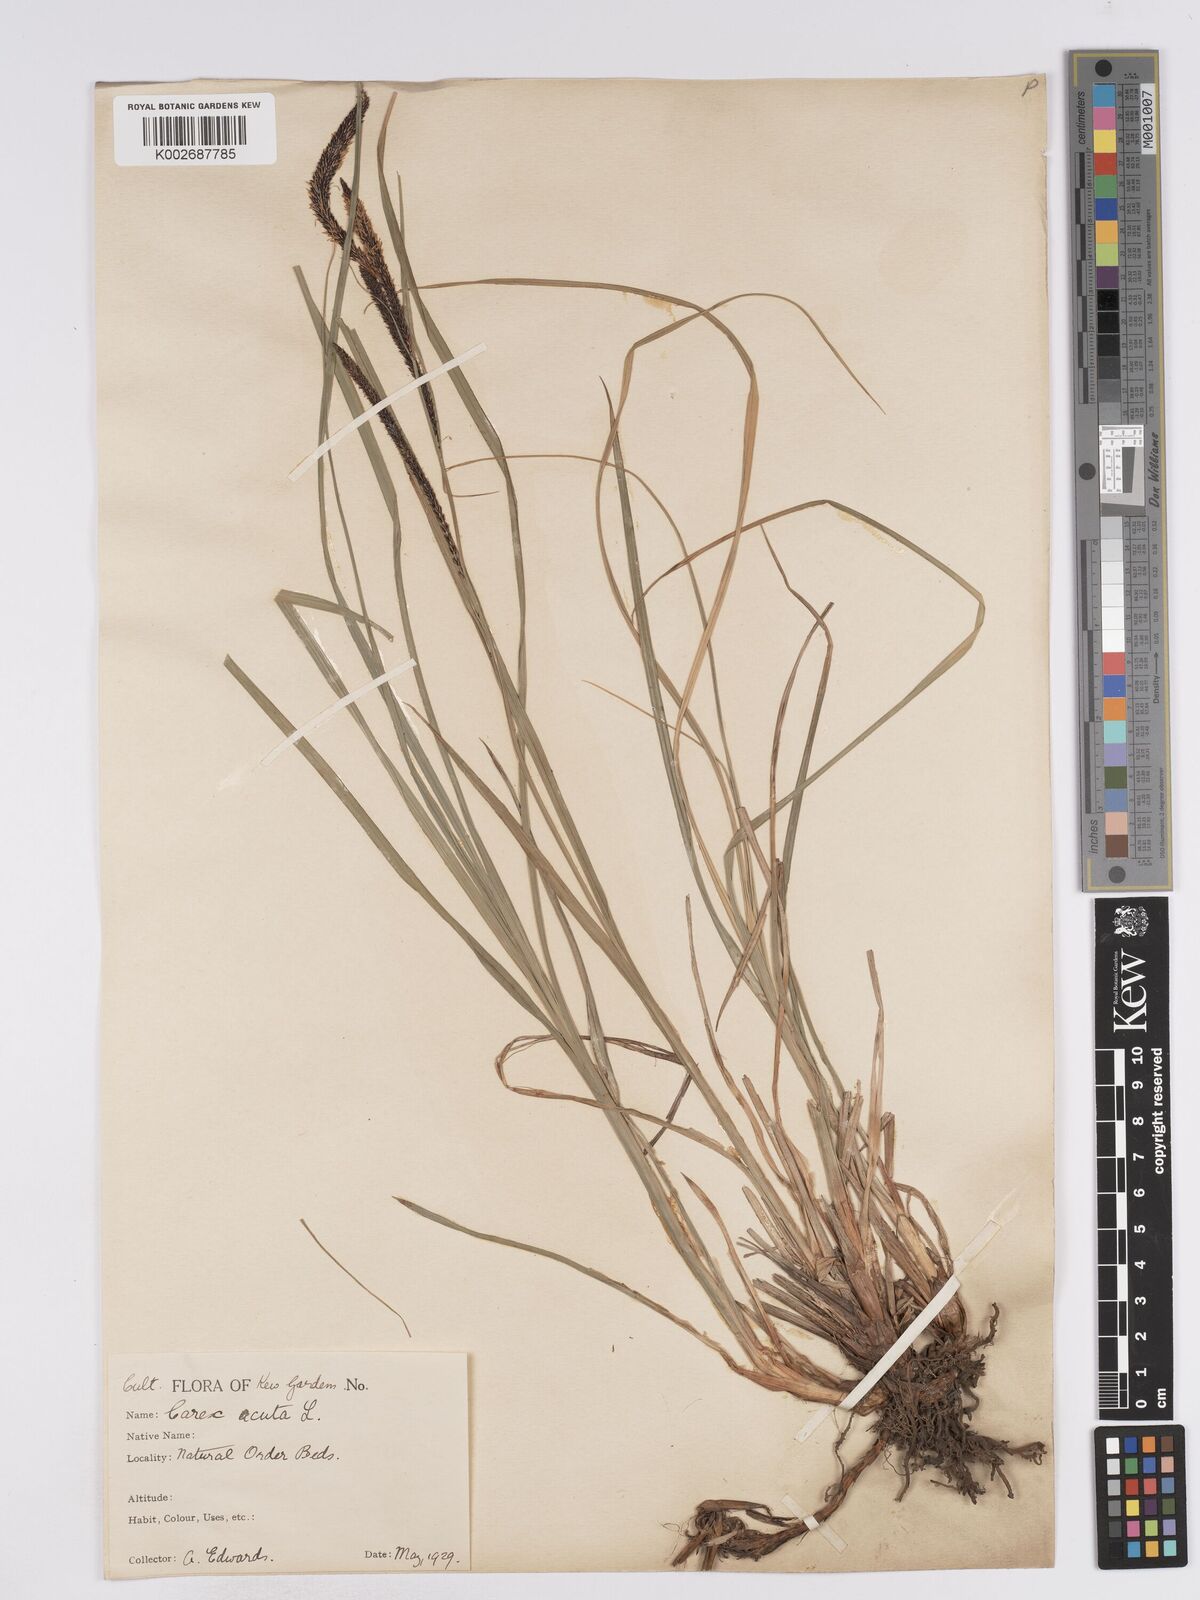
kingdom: Plantae
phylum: Tracheophyta
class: Liliopsida
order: Poales
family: Cyperaceae
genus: Carex
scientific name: Carex acuta
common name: Slender tufted-sedge
